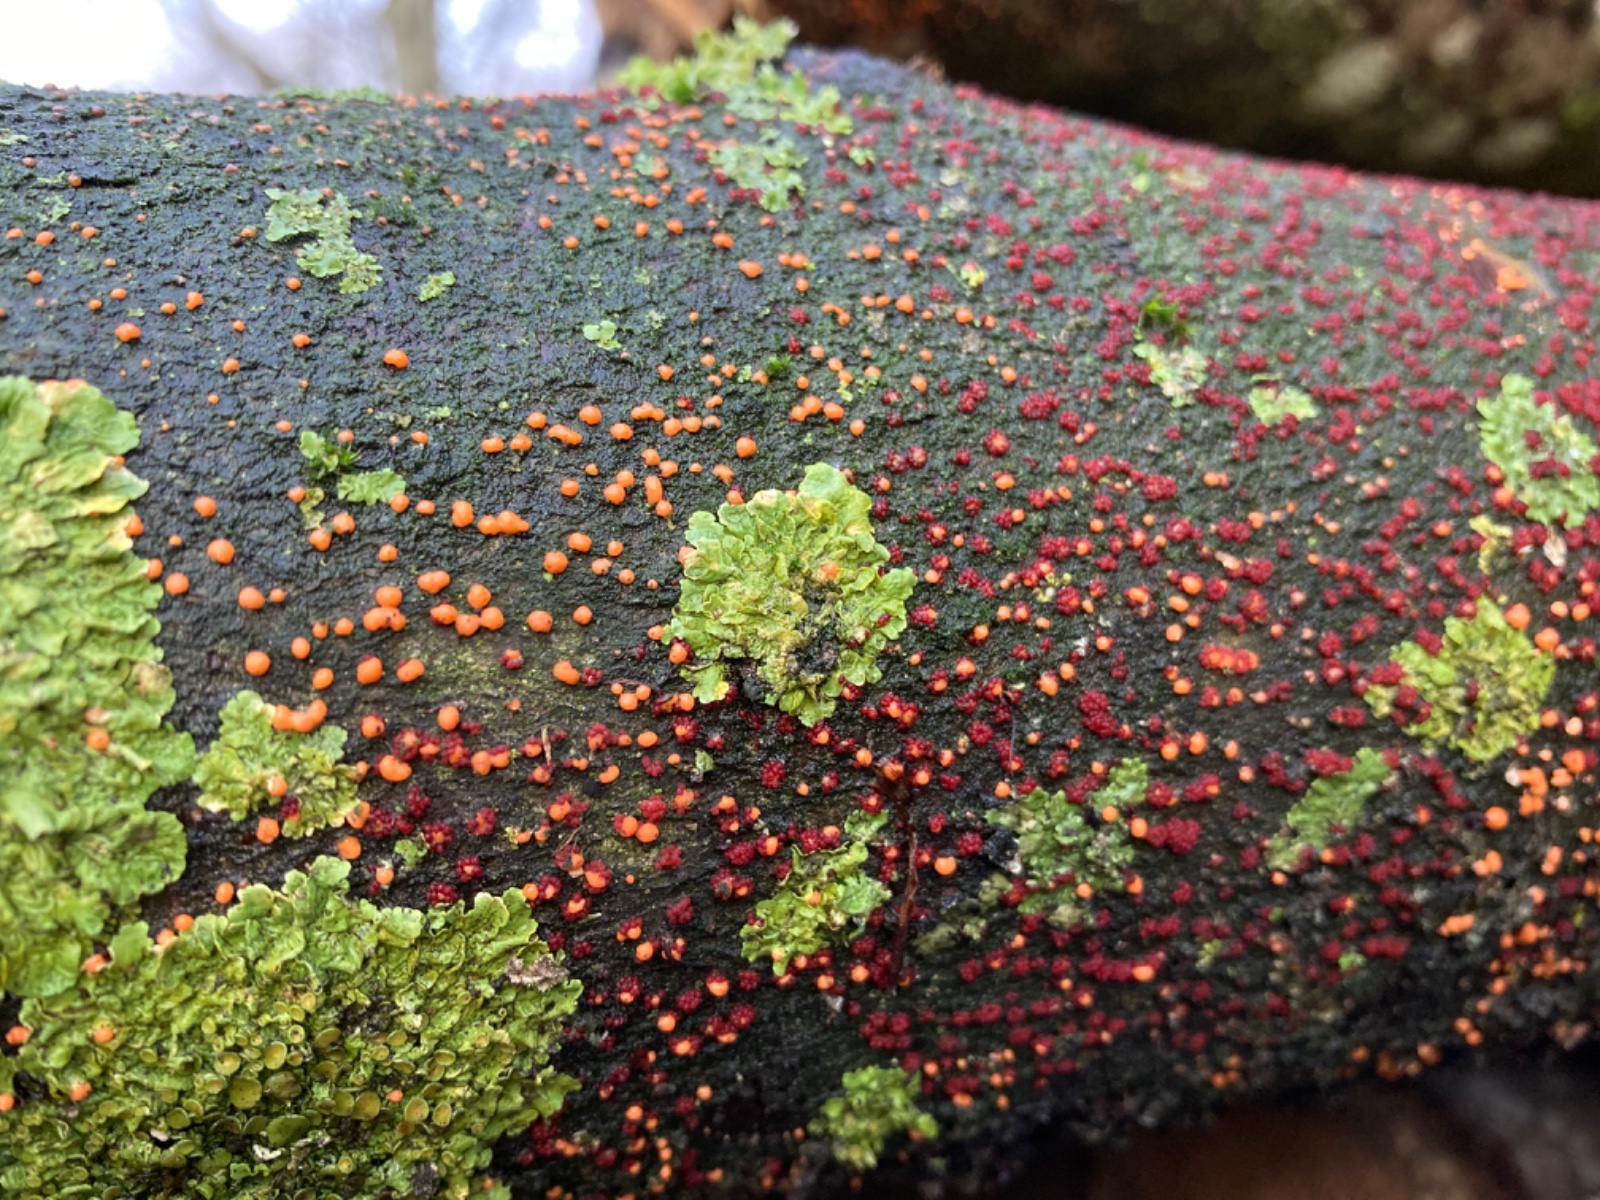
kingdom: Fungi
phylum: Ascomycota
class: Sordariomycetes
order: Hypocreales
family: Nectriaceae
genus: Nectria
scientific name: Nectria cinnabarina
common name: almindelig cinnobersvamp
